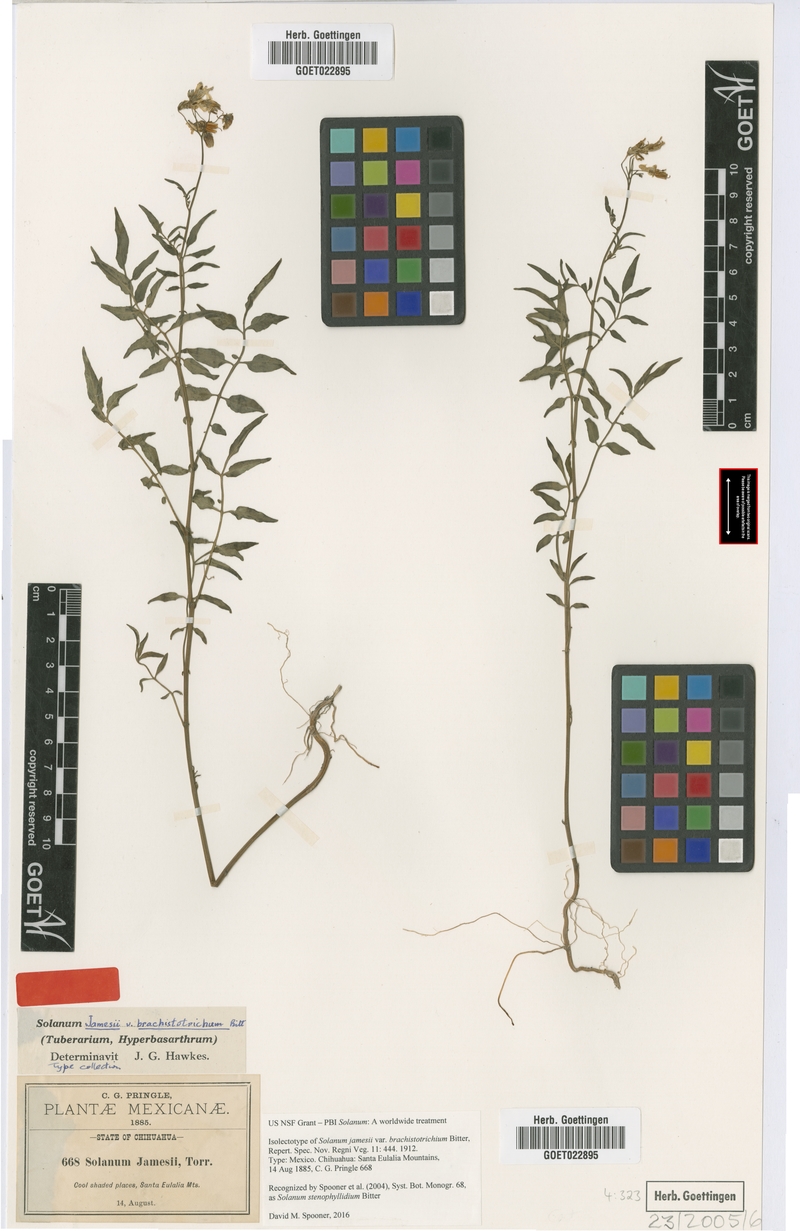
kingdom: Plantae
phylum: Tracheophyta
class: Magnoliopsida
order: Solanales
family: Solanaceae
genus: Solanum
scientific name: Solanum stenophyllidium
